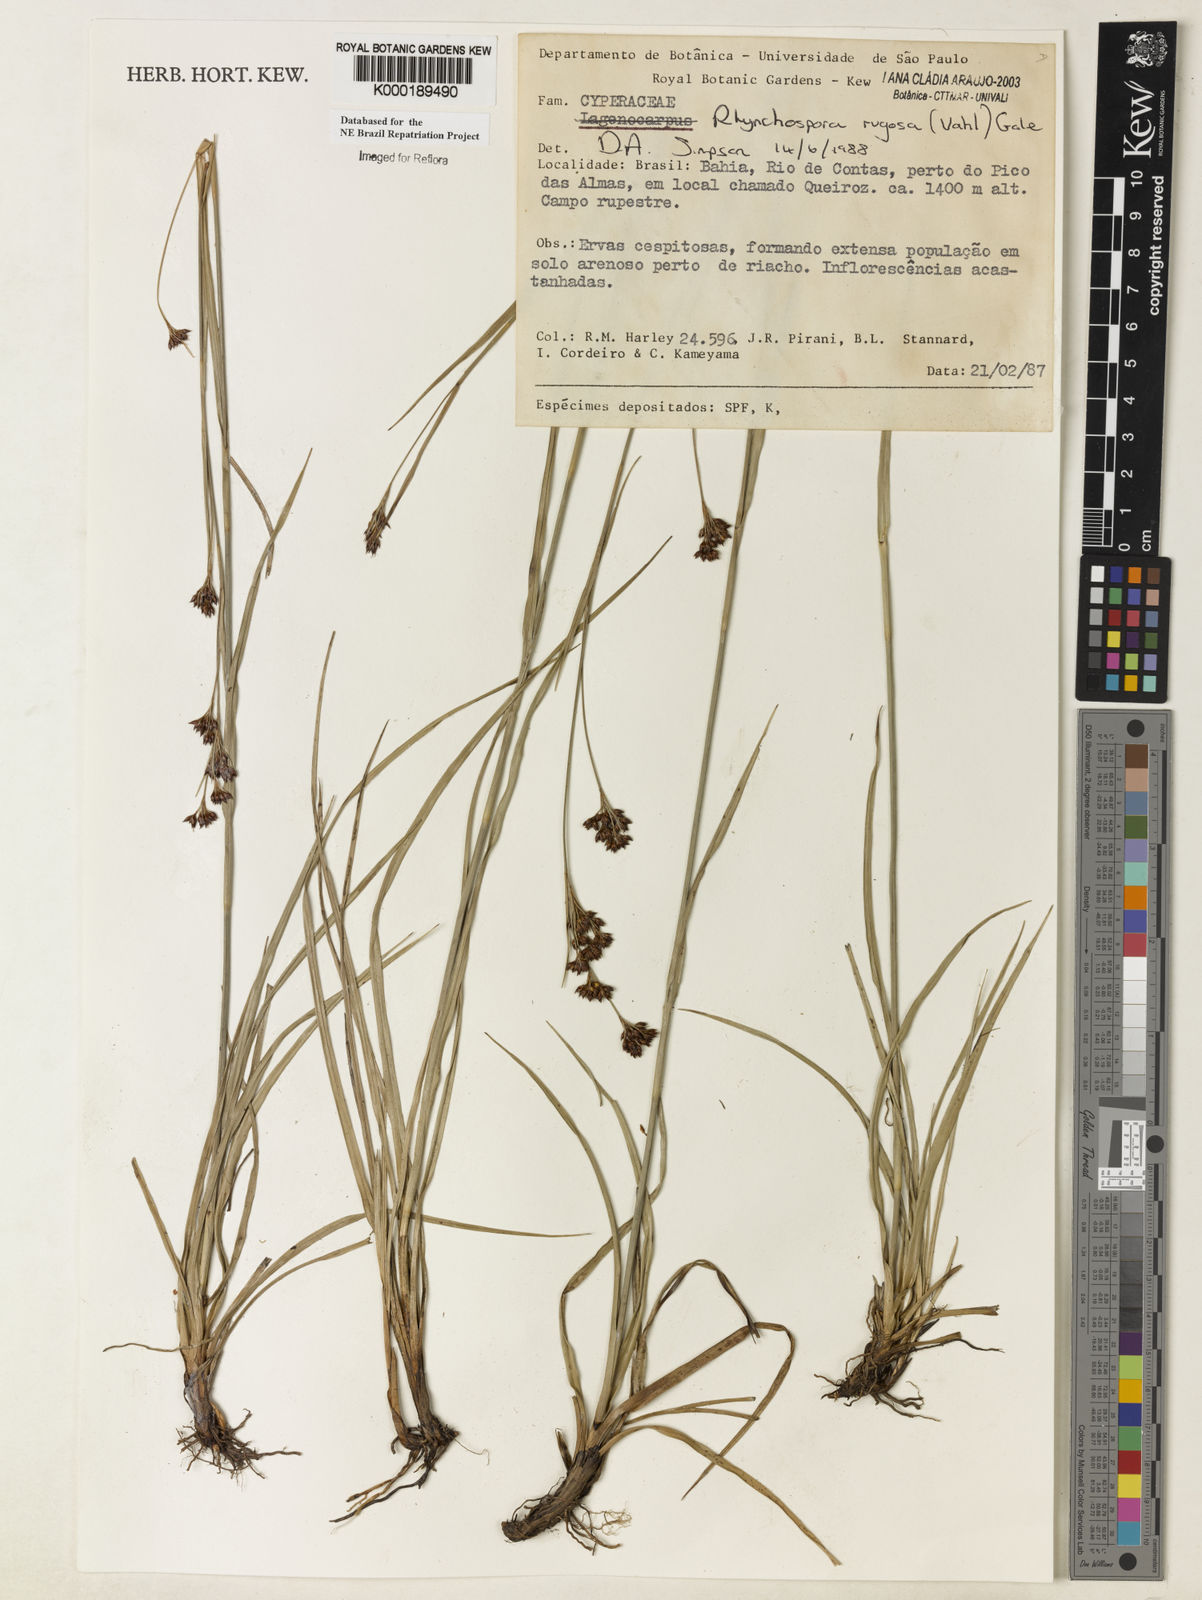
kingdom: Plantae
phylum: Tracheophyta
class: Liliopsida
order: Poales
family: Cyperaceae
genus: Rhynchospora
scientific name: Rhynchospora rugosa
